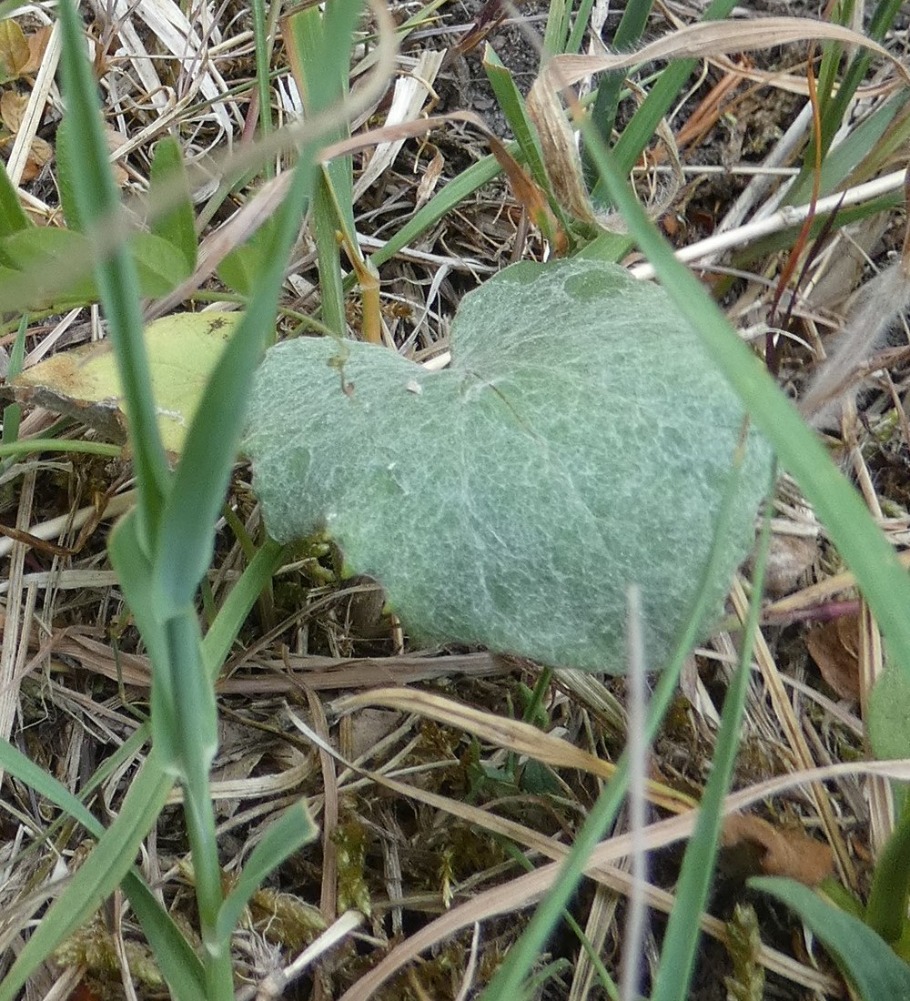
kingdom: Plantae
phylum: Tracheophyta
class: Magnoliopsida
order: Asterales
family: Asteraceae
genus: Tussilago
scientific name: Tussilago farfara
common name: Følfod
